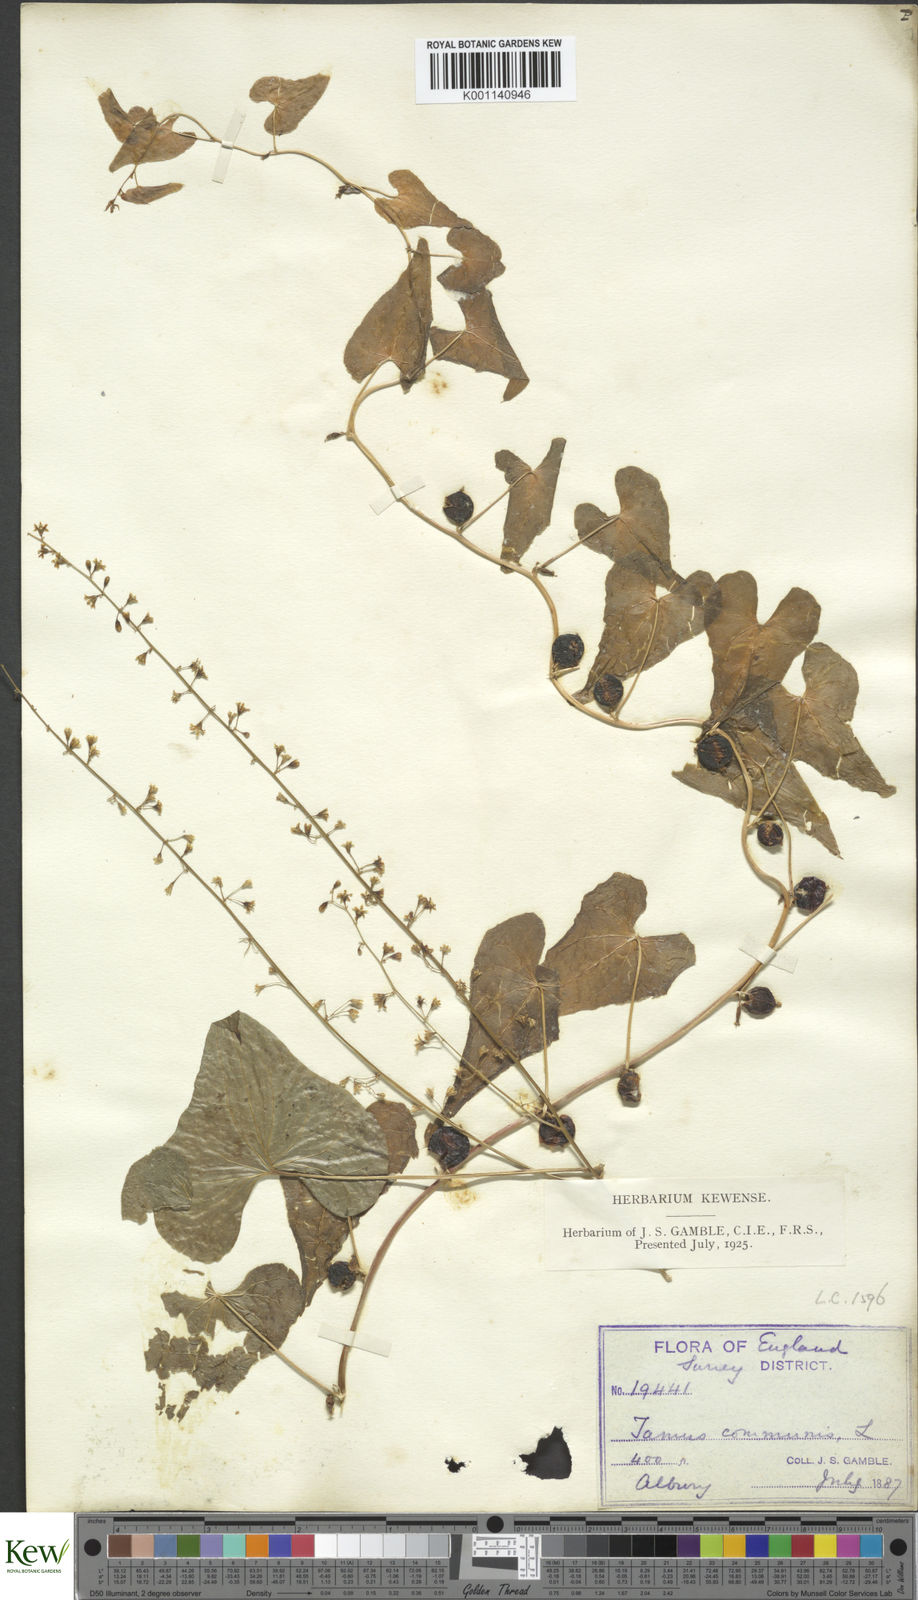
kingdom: Plantae
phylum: Tracheophyta
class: Liliopsida
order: Dioscoreales
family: Dioscoreaceae
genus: Dioscorea
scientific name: Dioscorea communis
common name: Black-bindweed
